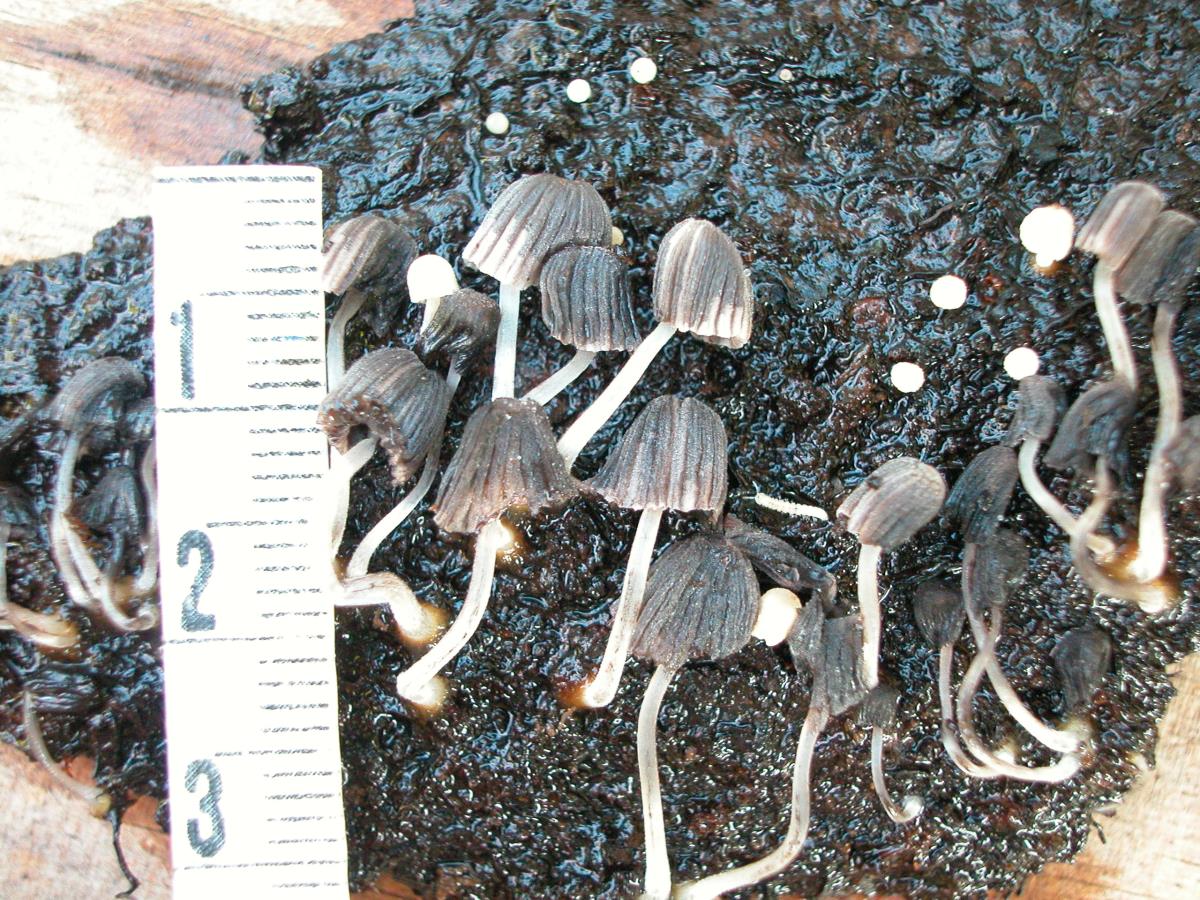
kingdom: Fungi
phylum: Basidiomycota
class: Agaricomycetes
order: Agaricales
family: Psathyrellaceae
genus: Coprinellus
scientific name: Coprinellus aureogranulatus
